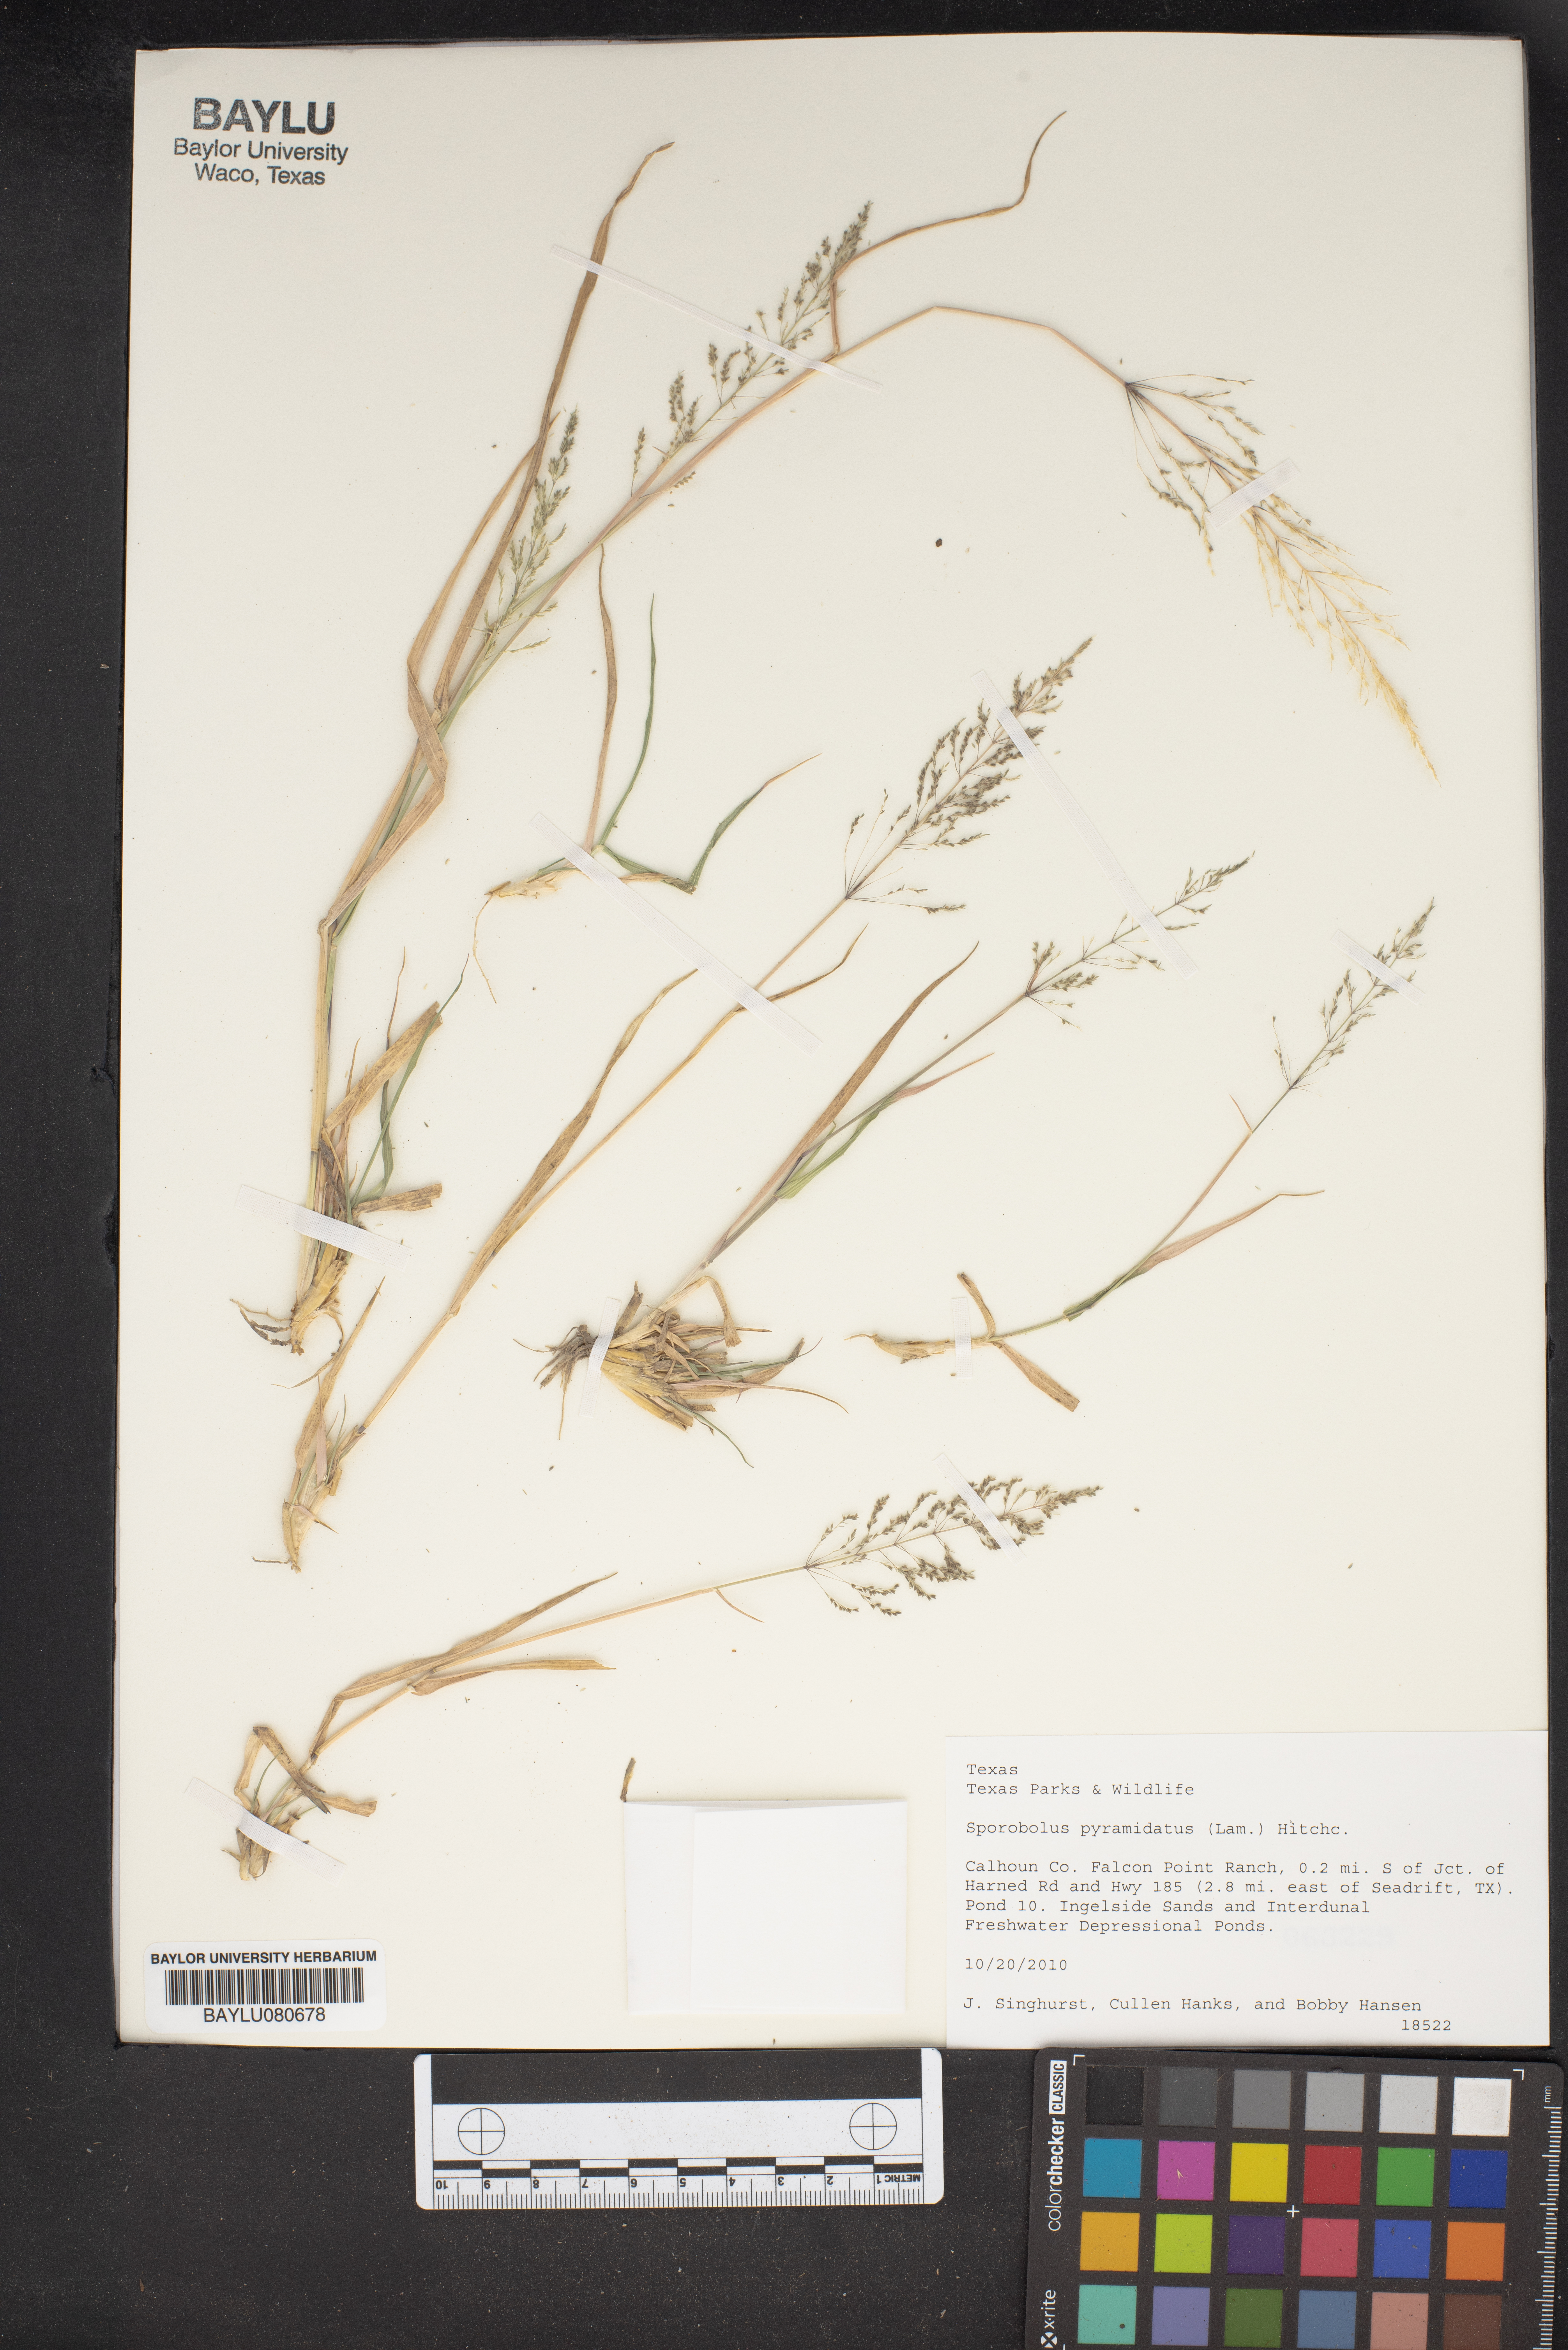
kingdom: Plantae
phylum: Tracheophyta
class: Liliopsida
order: Poales
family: Poaceae
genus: Sporobolus
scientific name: Sporobolus pyramidatus
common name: Whorled dropseed
